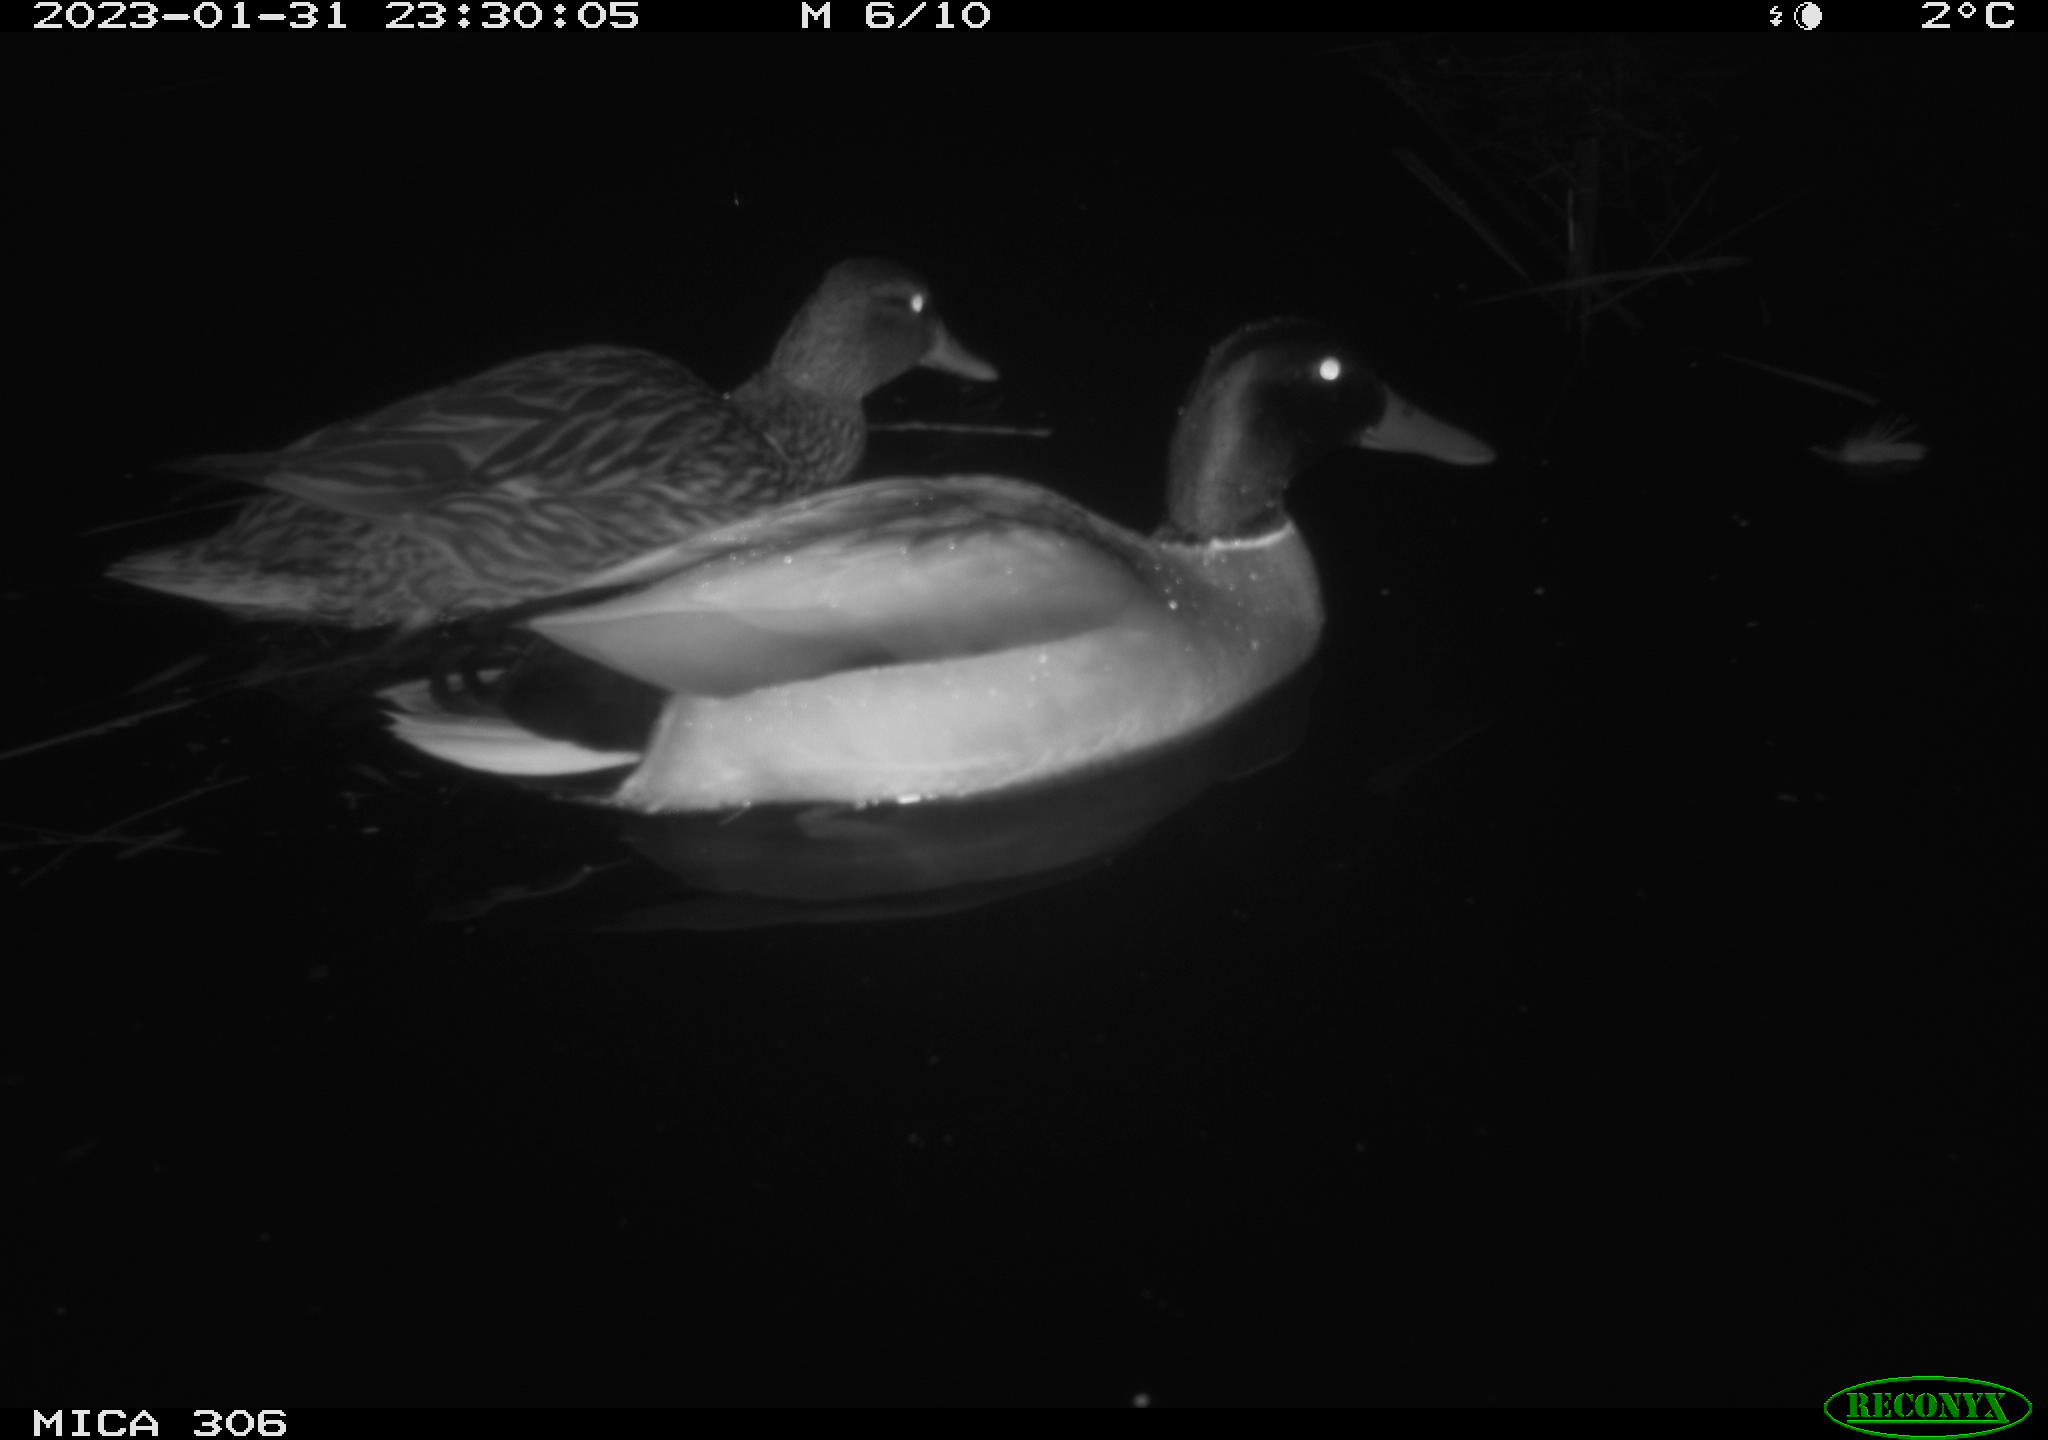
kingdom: Animalia
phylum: Chordata
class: Aves
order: Anseriformes
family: Anatidae
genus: Anas
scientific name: Anas
